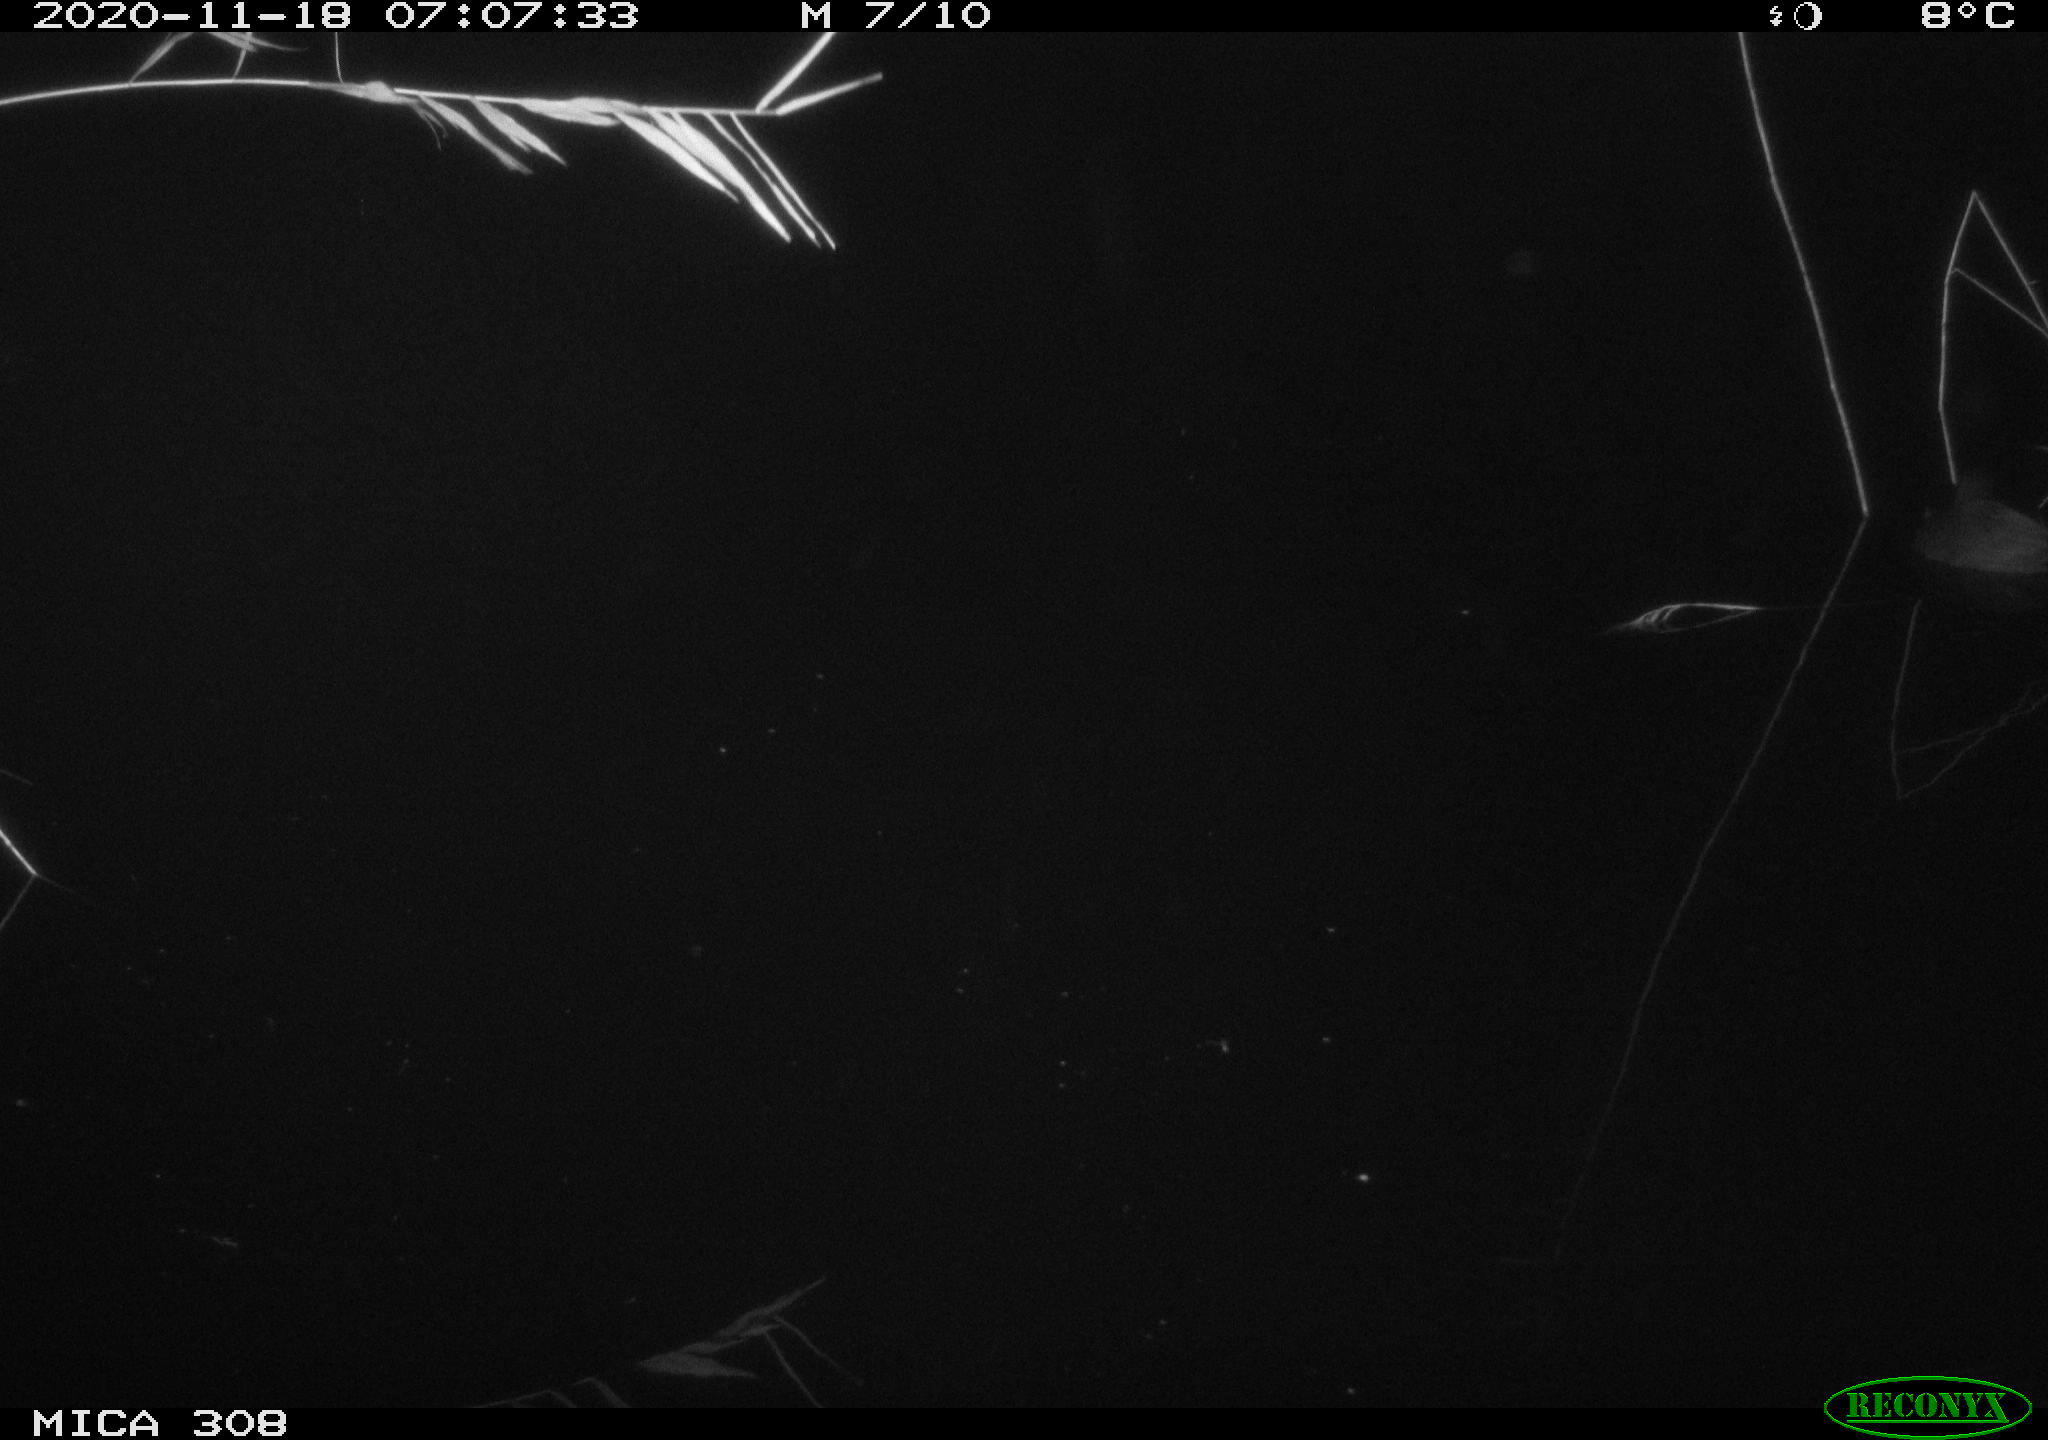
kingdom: Animalia
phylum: Chordata
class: Aves
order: Gruiformes
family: Rallidae
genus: Fulica
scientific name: Fulica atra
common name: Eurasian coot
